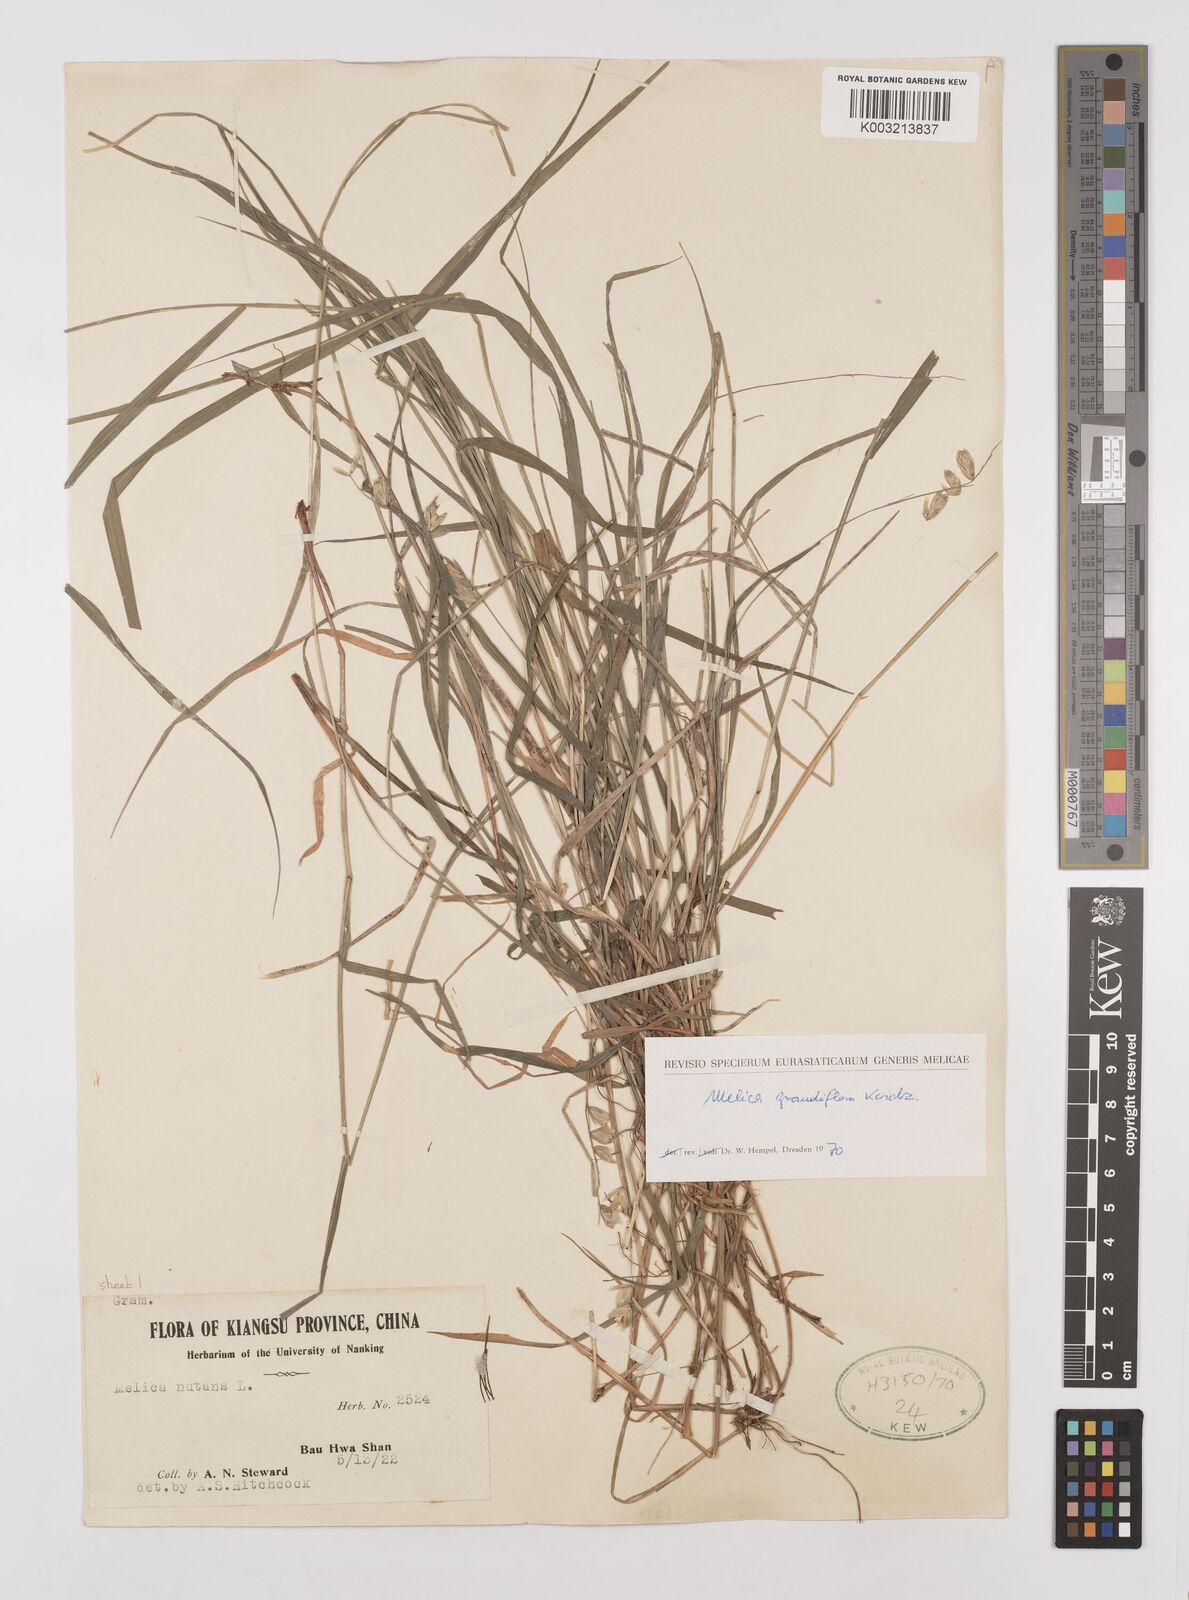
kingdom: Plantae
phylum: Tracheophyta
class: Liliopsida
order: Poales
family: Poaceae
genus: Melica
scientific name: Melica nutans
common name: Mountain melick
